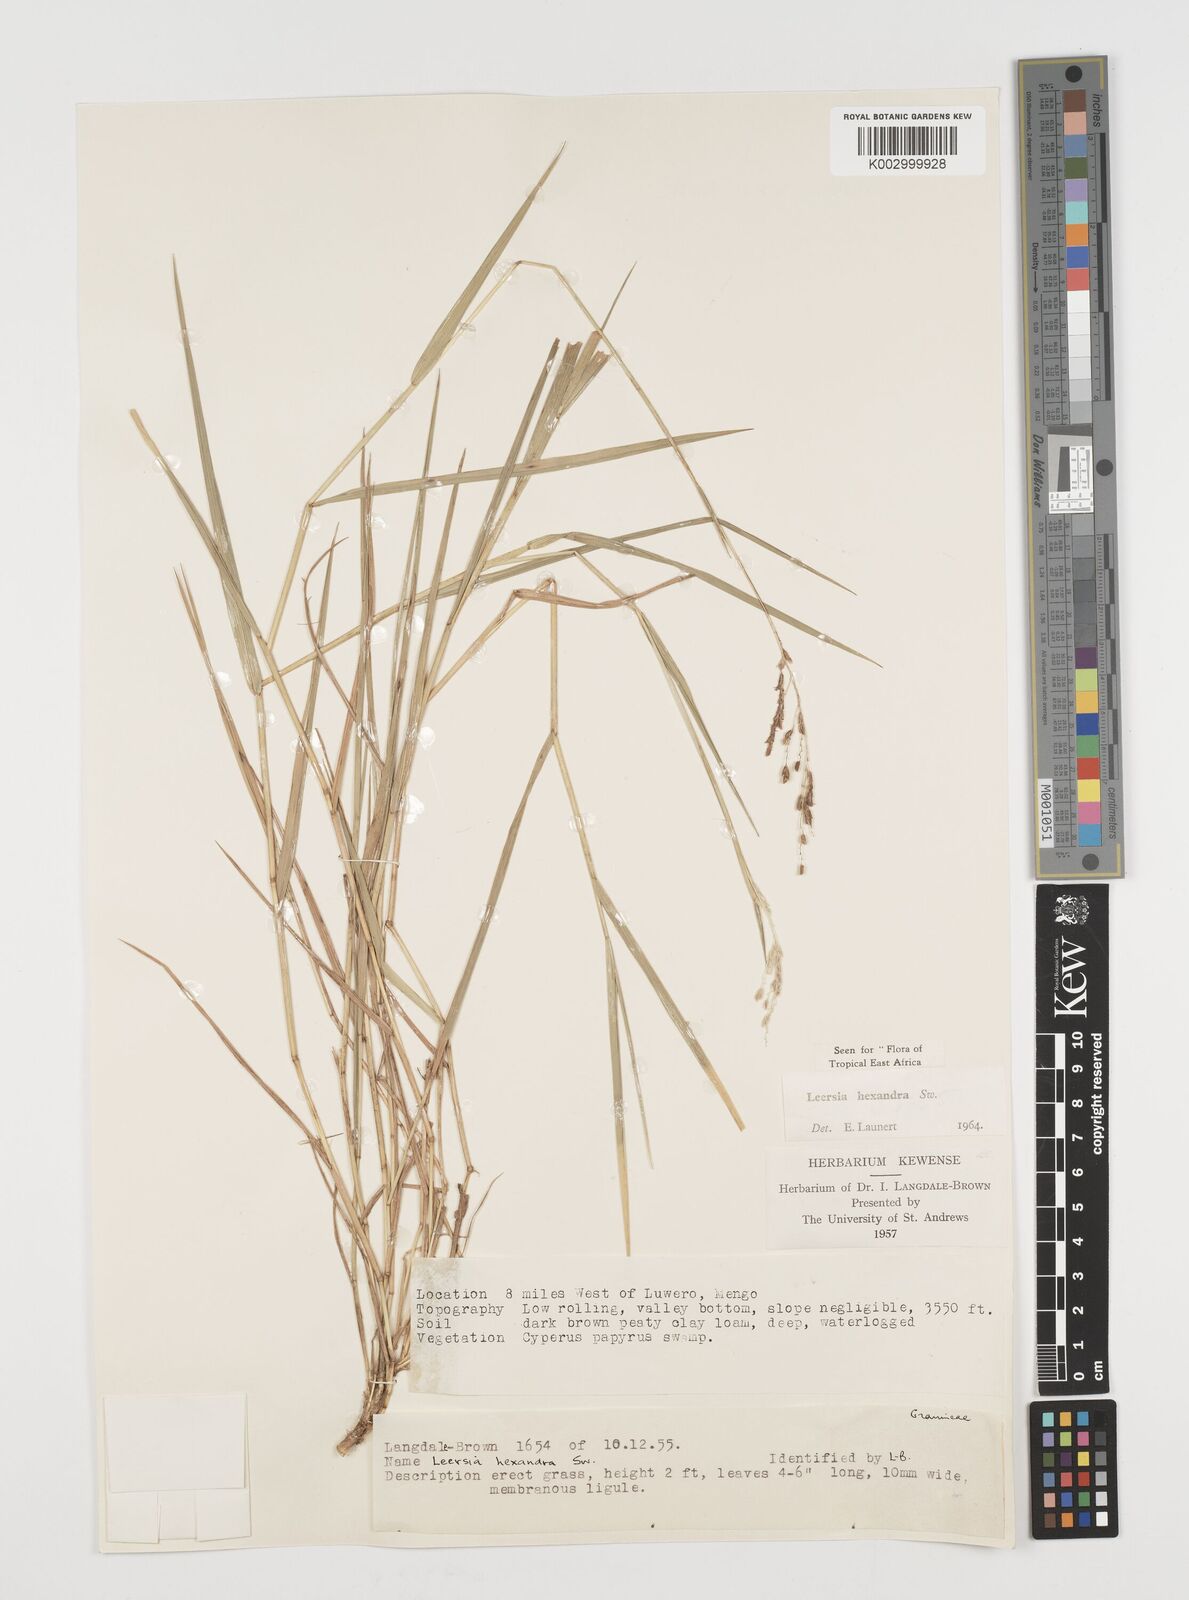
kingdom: Plantae
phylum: Tracheophyta
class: Liliopsida
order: Poales
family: Poaceae
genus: Leersia
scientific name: Leersia hexandra
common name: Southern cut grass
